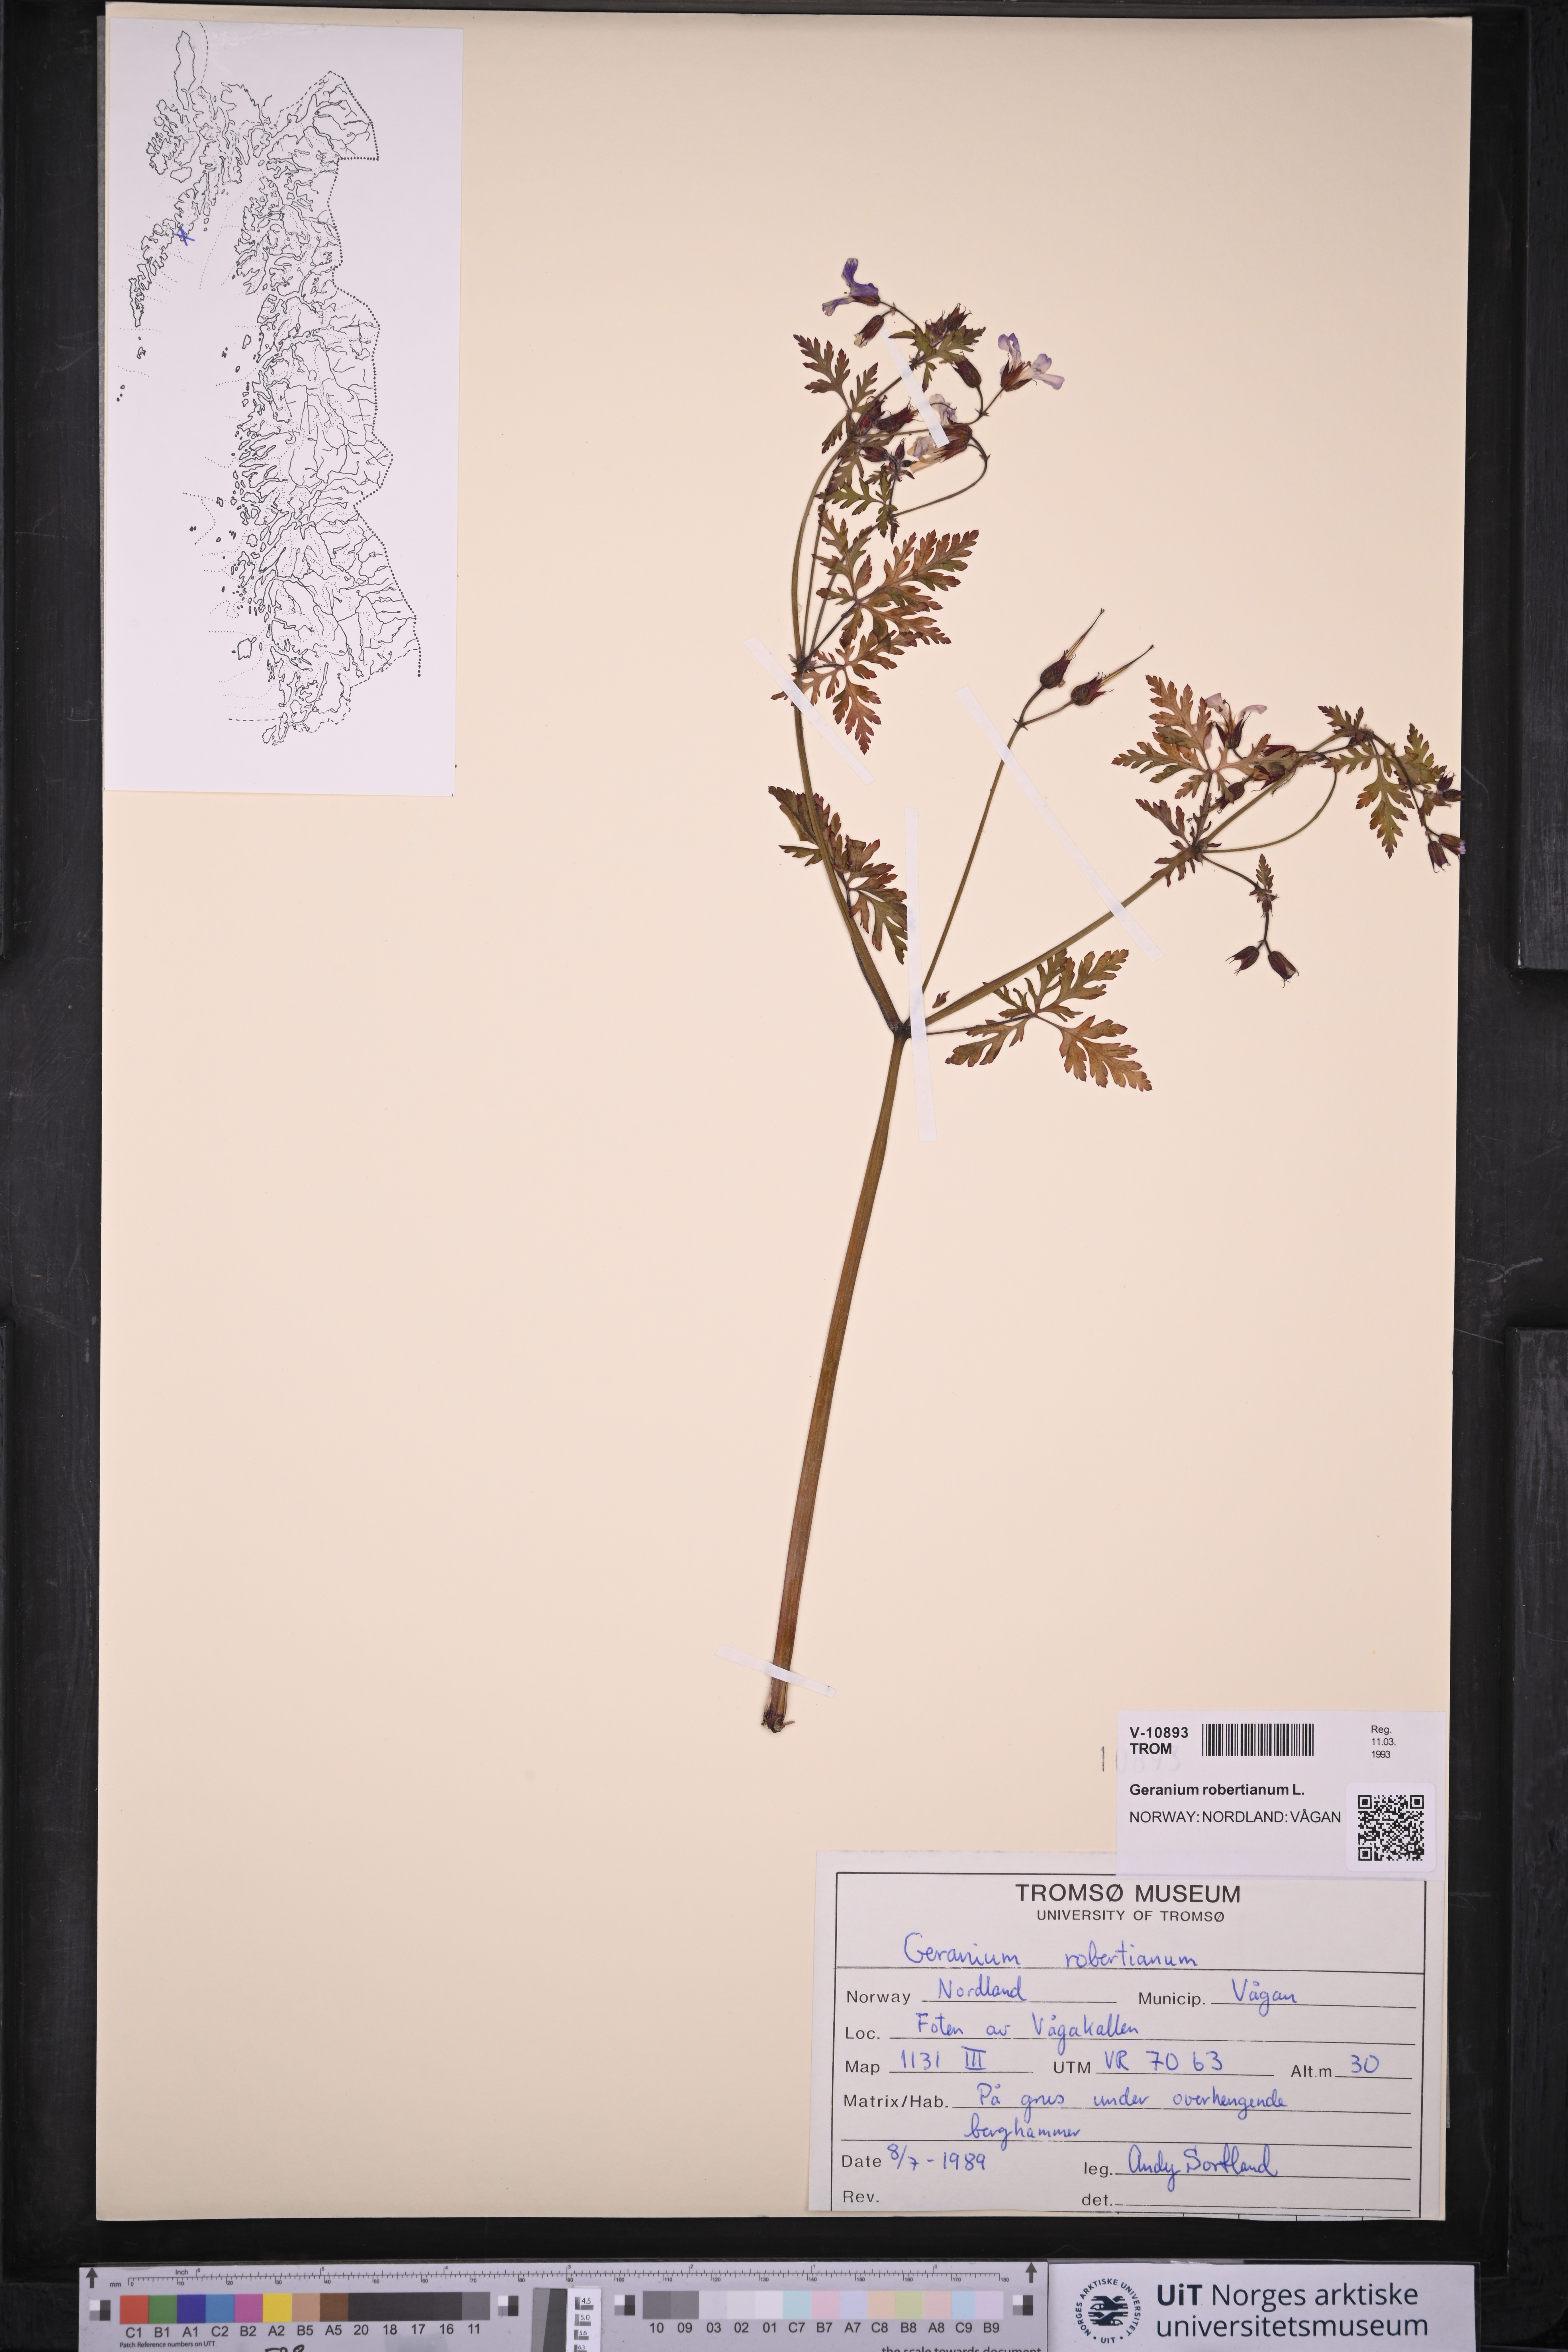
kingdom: Plantae
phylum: Tracheophyta
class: Magnoliopsida
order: Geraniales
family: Geraniaceae
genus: Geranium
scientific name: Geranium robertianum
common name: Herb-robert
